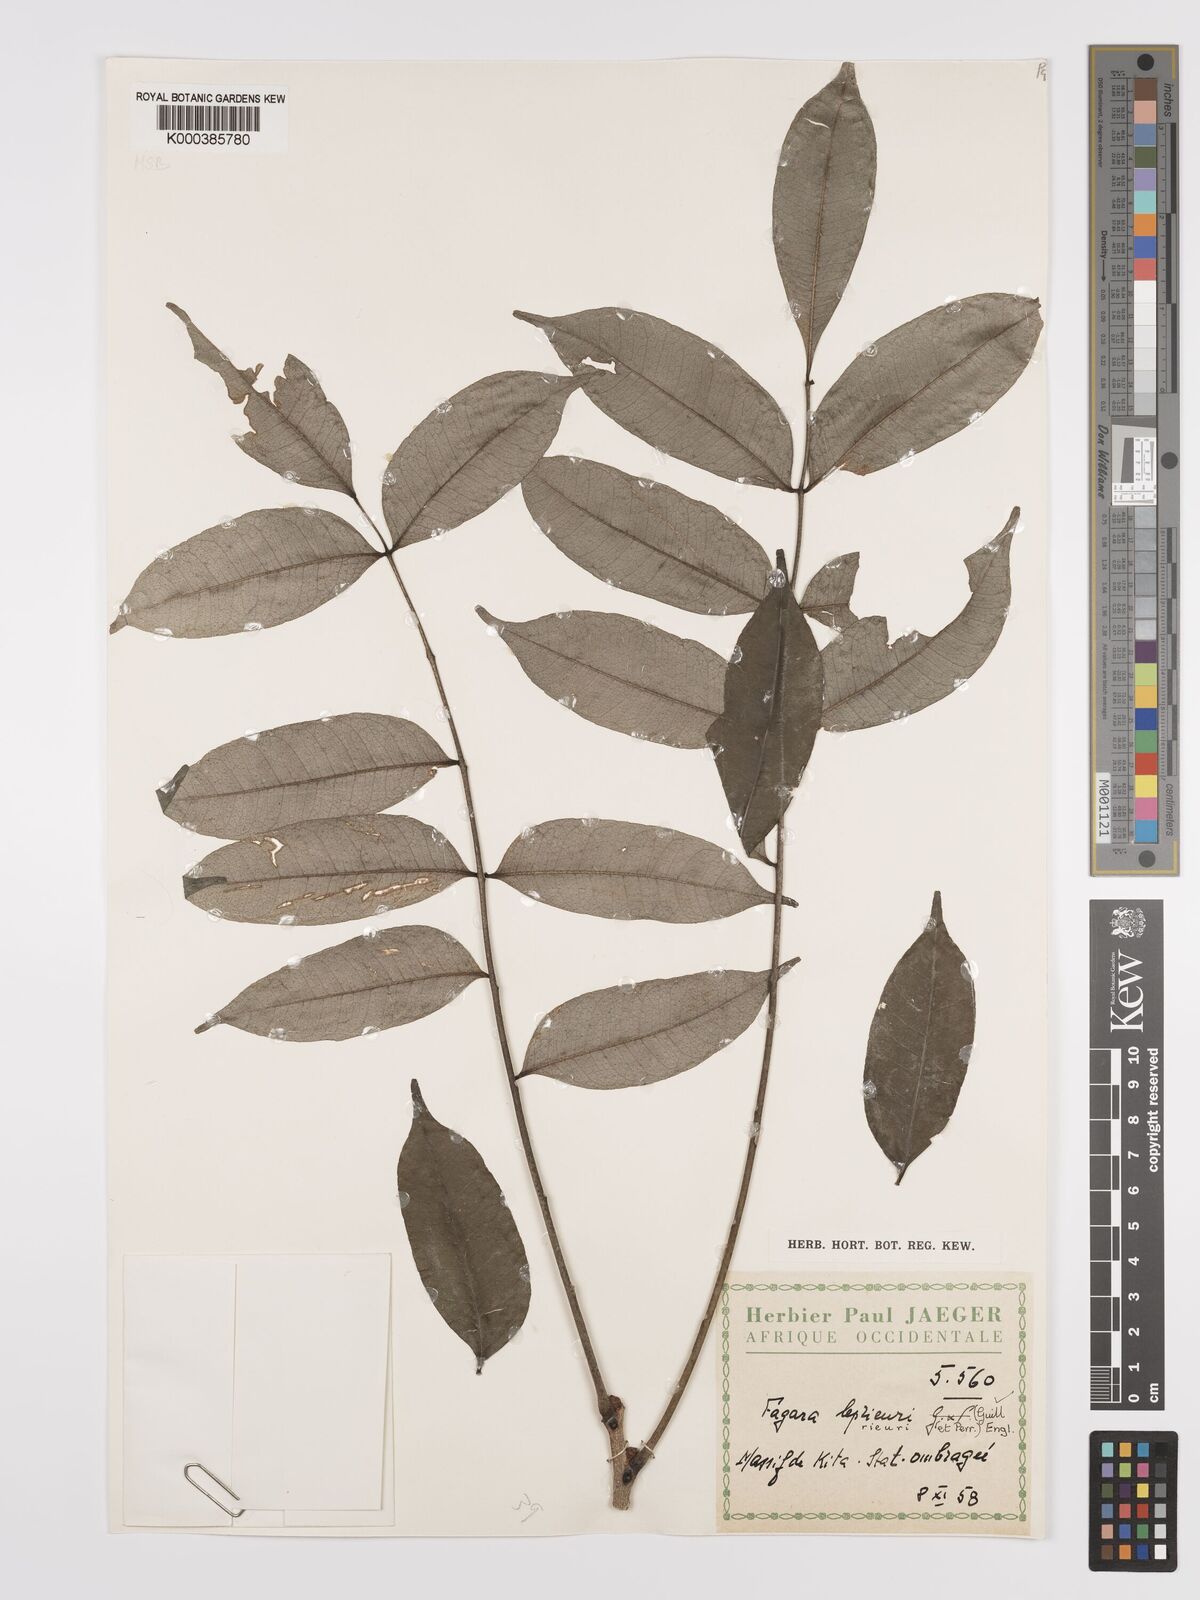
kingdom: Plantae
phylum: Tracheophyta
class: Magnoliopsida
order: Sapindales
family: Rutaceae
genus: Zanthoxylum
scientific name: Zanthoxylum leprieurii
